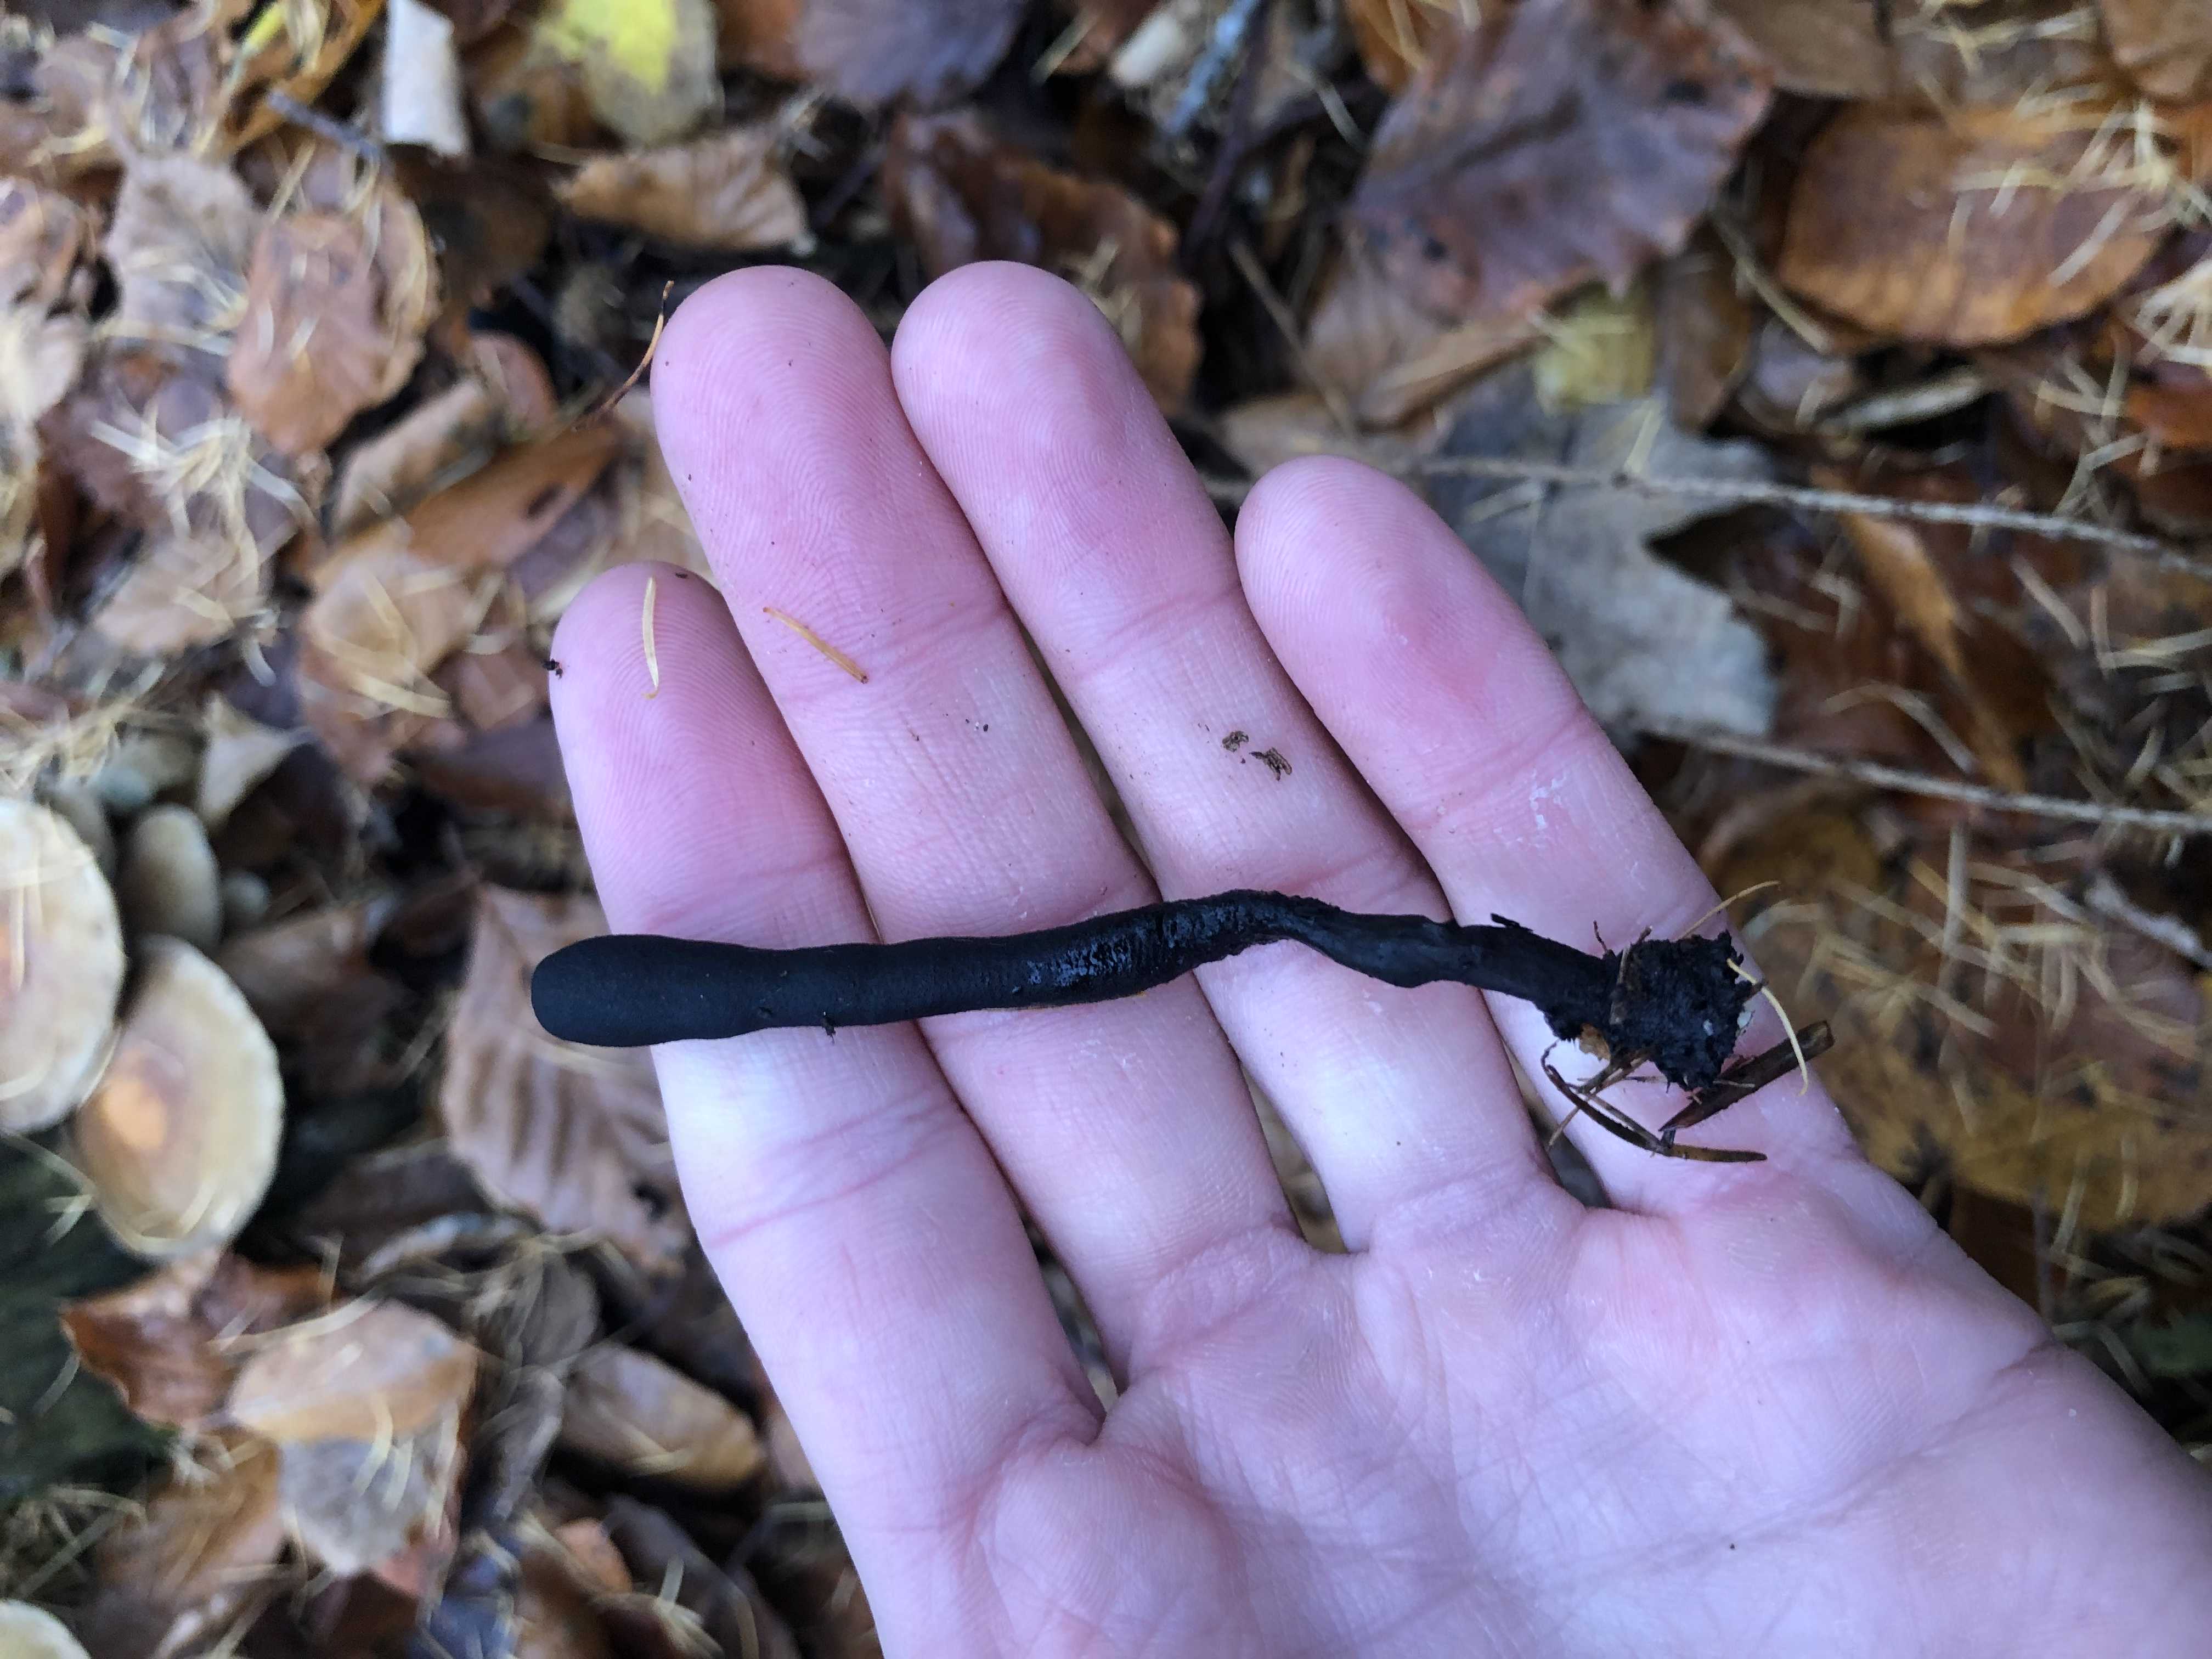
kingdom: Fungi
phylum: Ascomycota
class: Sordariomycetes
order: Xylariales
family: Xylariaceae
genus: Xylaria
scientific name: Xylaria longipes
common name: slank stødsvamp
